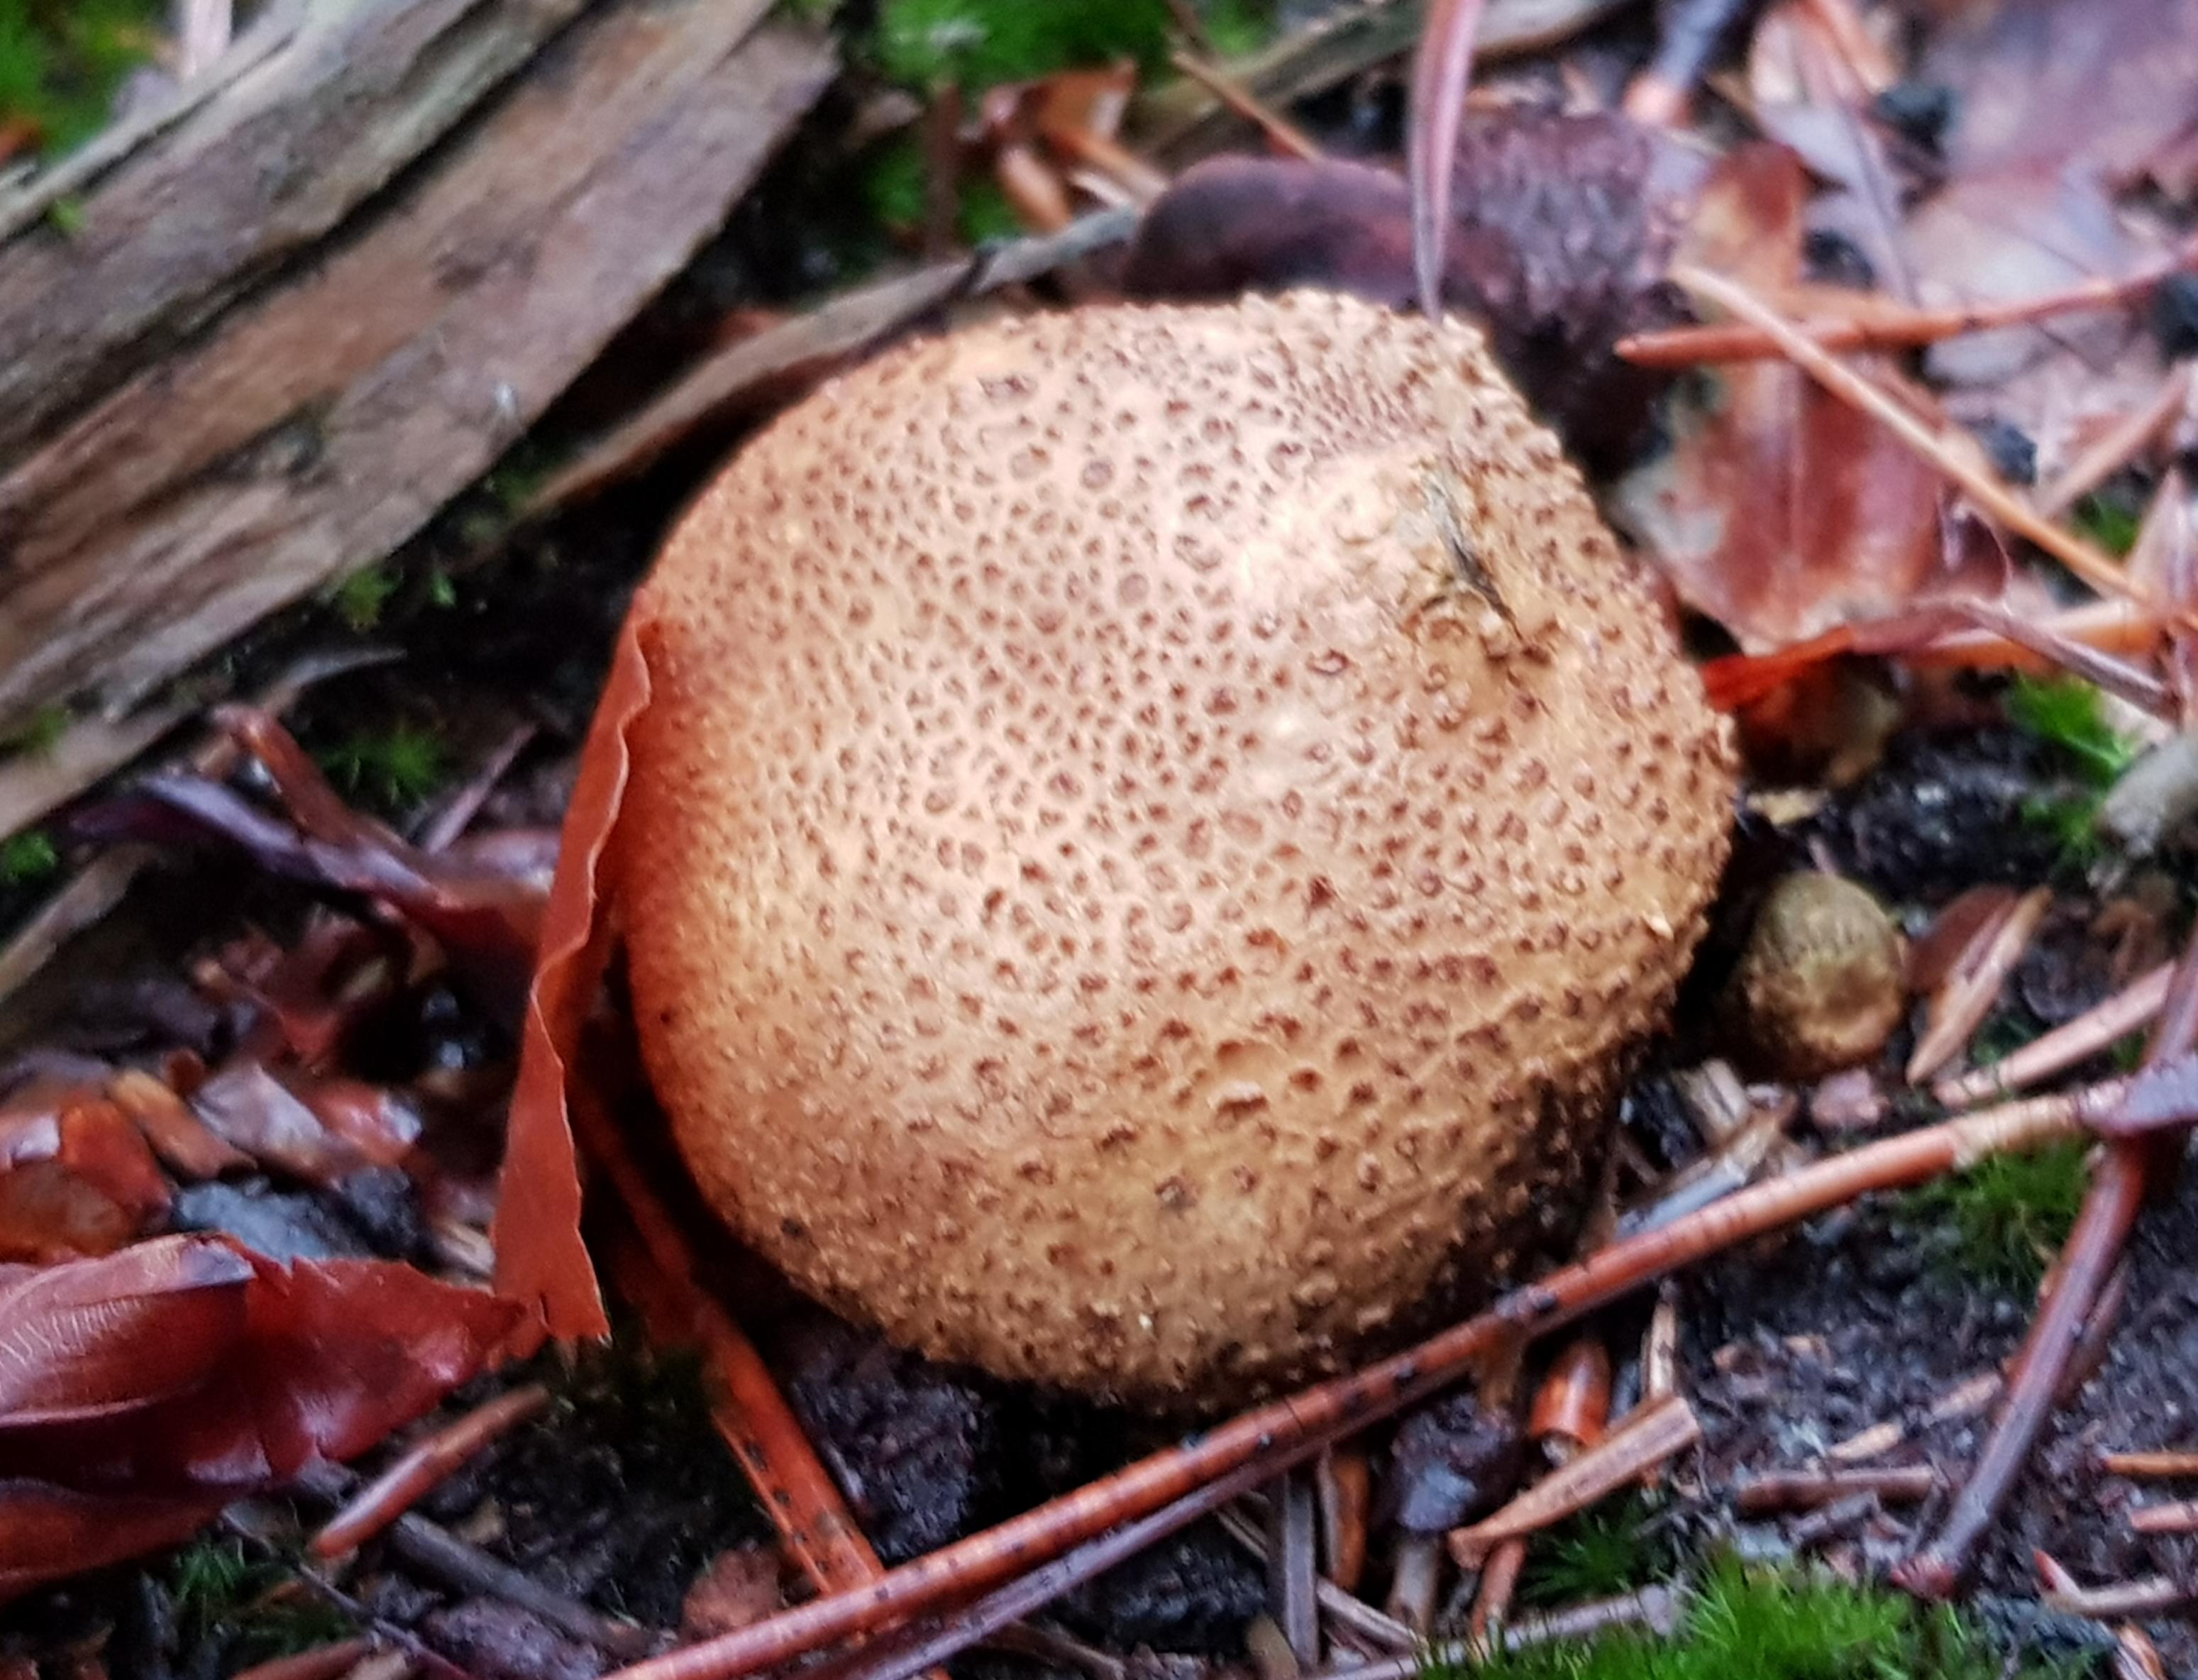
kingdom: Fungi
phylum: Basidiomycota
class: Agaricomycetes
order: Boletales
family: Sclerodermataceae
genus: Scleroderma
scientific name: Scleroderma citrinum
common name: almindelig bruskbold
